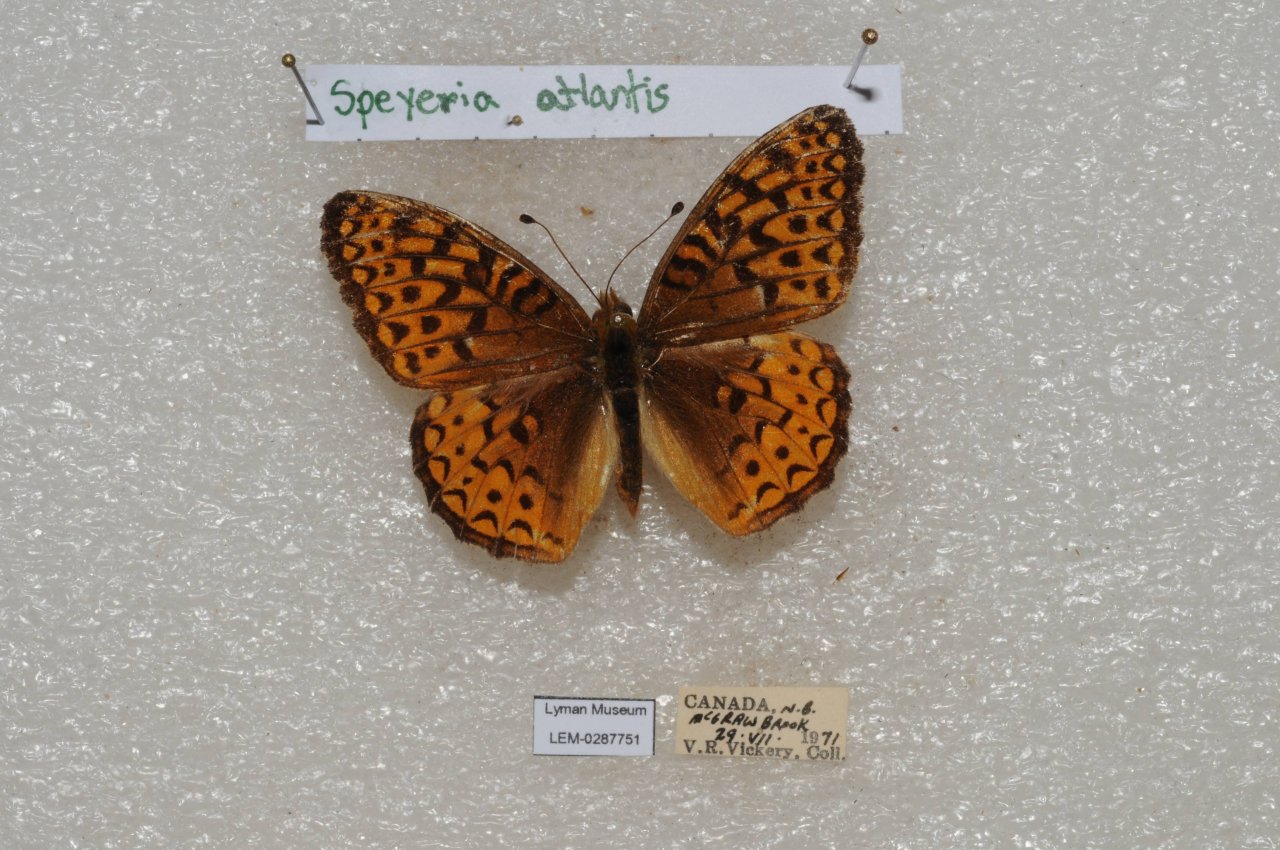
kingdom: Animalia
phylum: Arthropoda
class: Insecta
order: Lepidoptera
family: Nymphalidae
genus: Speyeria
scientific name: Speyeria atlantis
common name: Atlantis Fritillary
